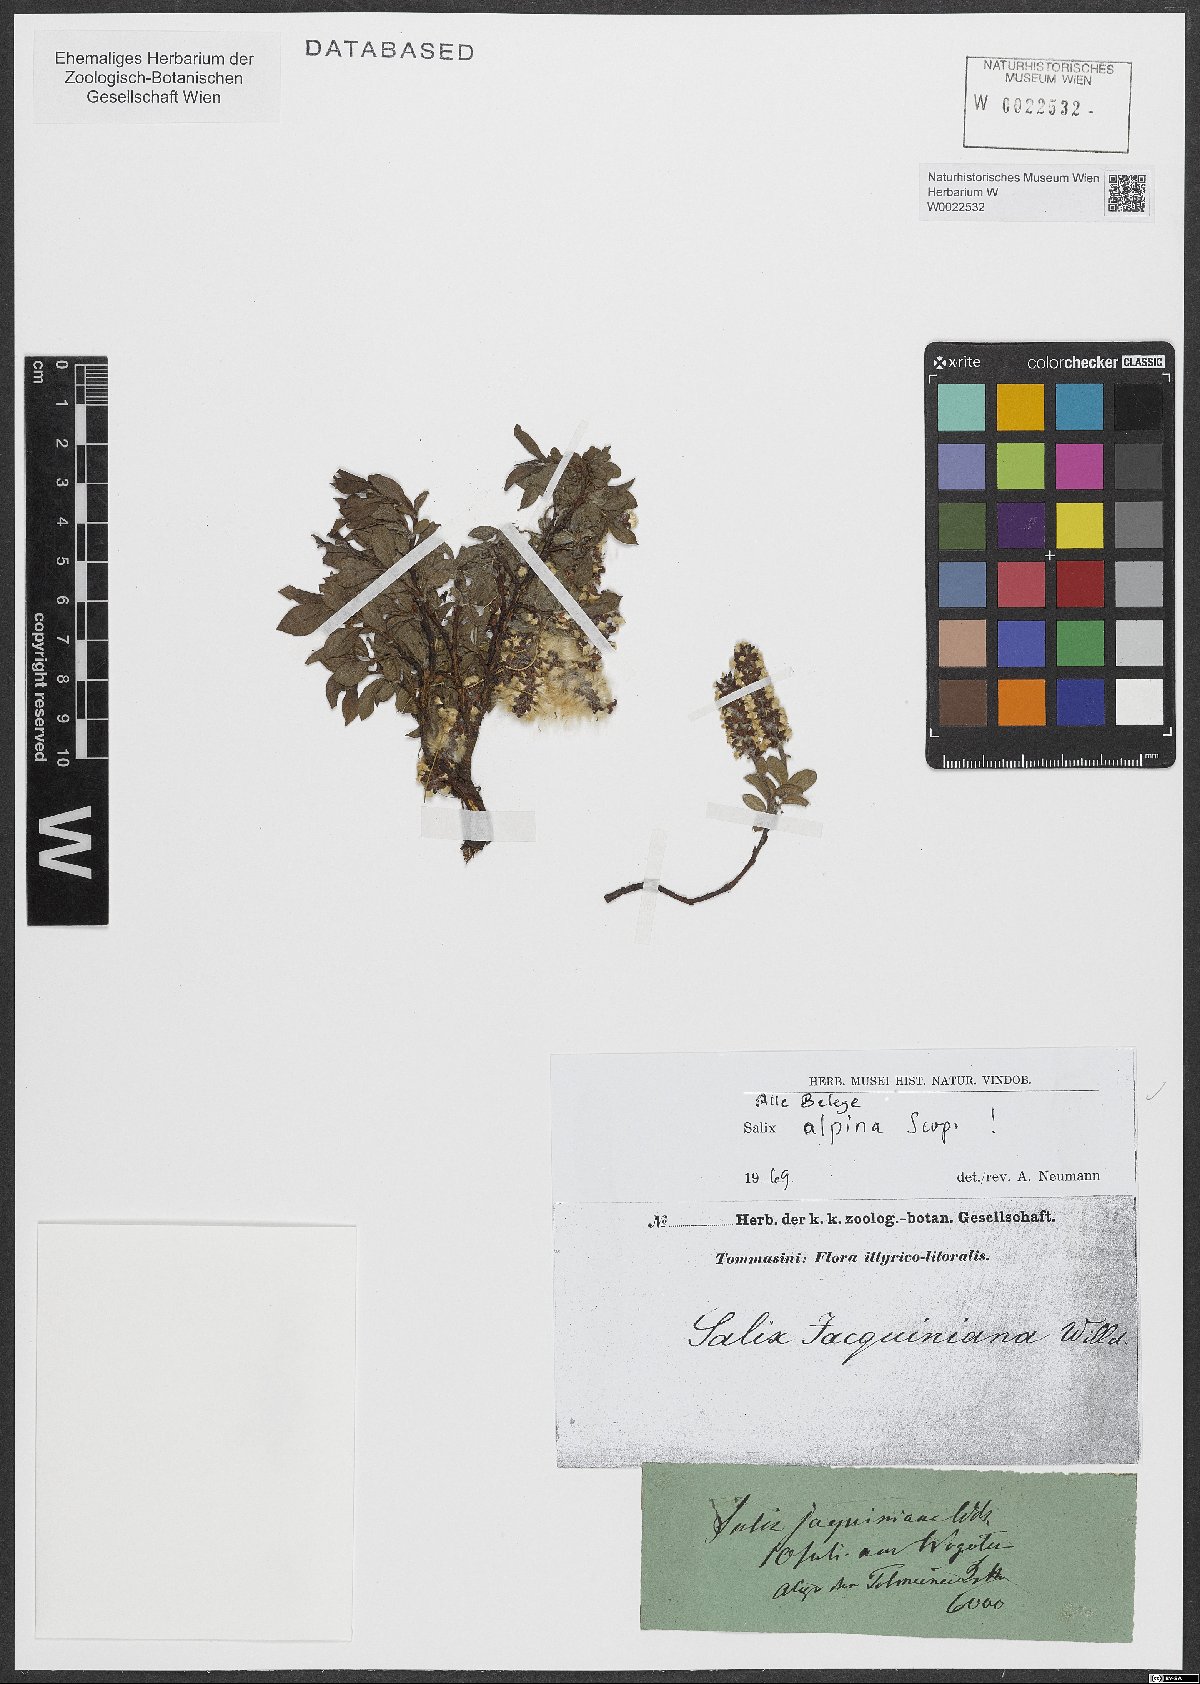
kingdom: Plantae
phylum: Tracheophyta
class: Magnoliopsida
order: Malpighiales
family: Salicaceae
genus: Salix
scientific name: Salix alpina
